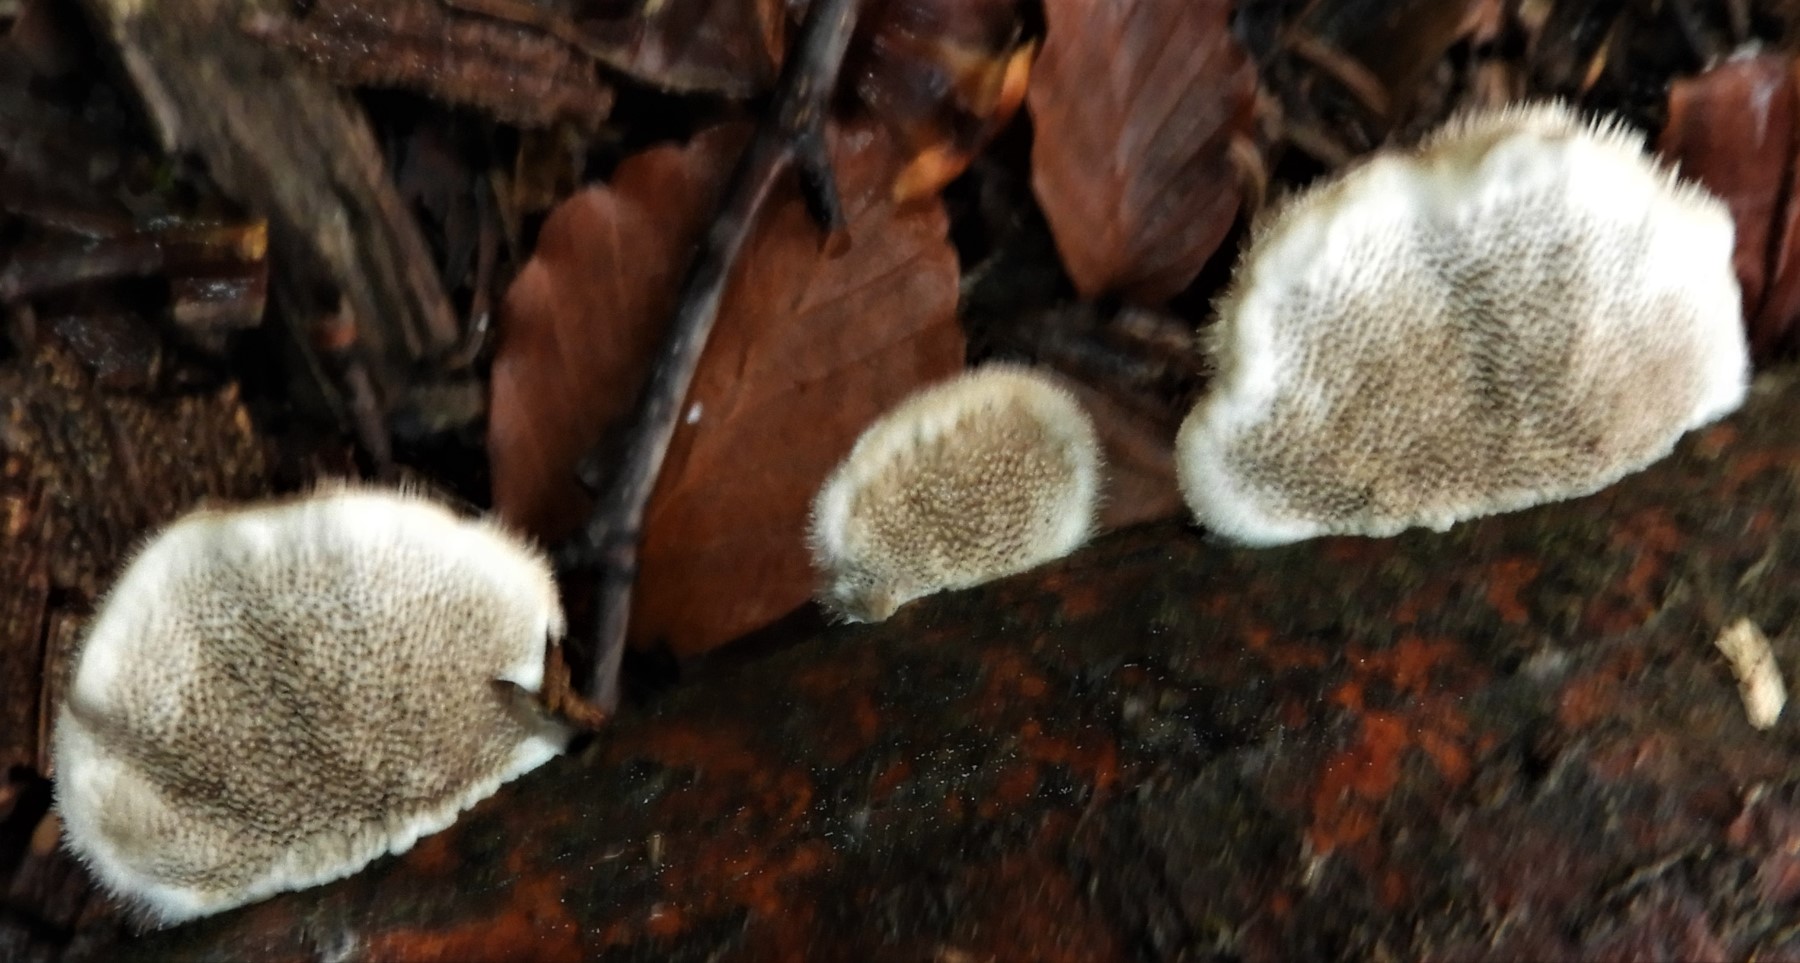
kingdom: Fungi
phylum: Basidiomycota
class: Agaricomycetes
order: Polyporales
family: Polyporaceae
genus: Trametes
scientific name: Trametes hirsuta
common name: håret læderporesvamp
